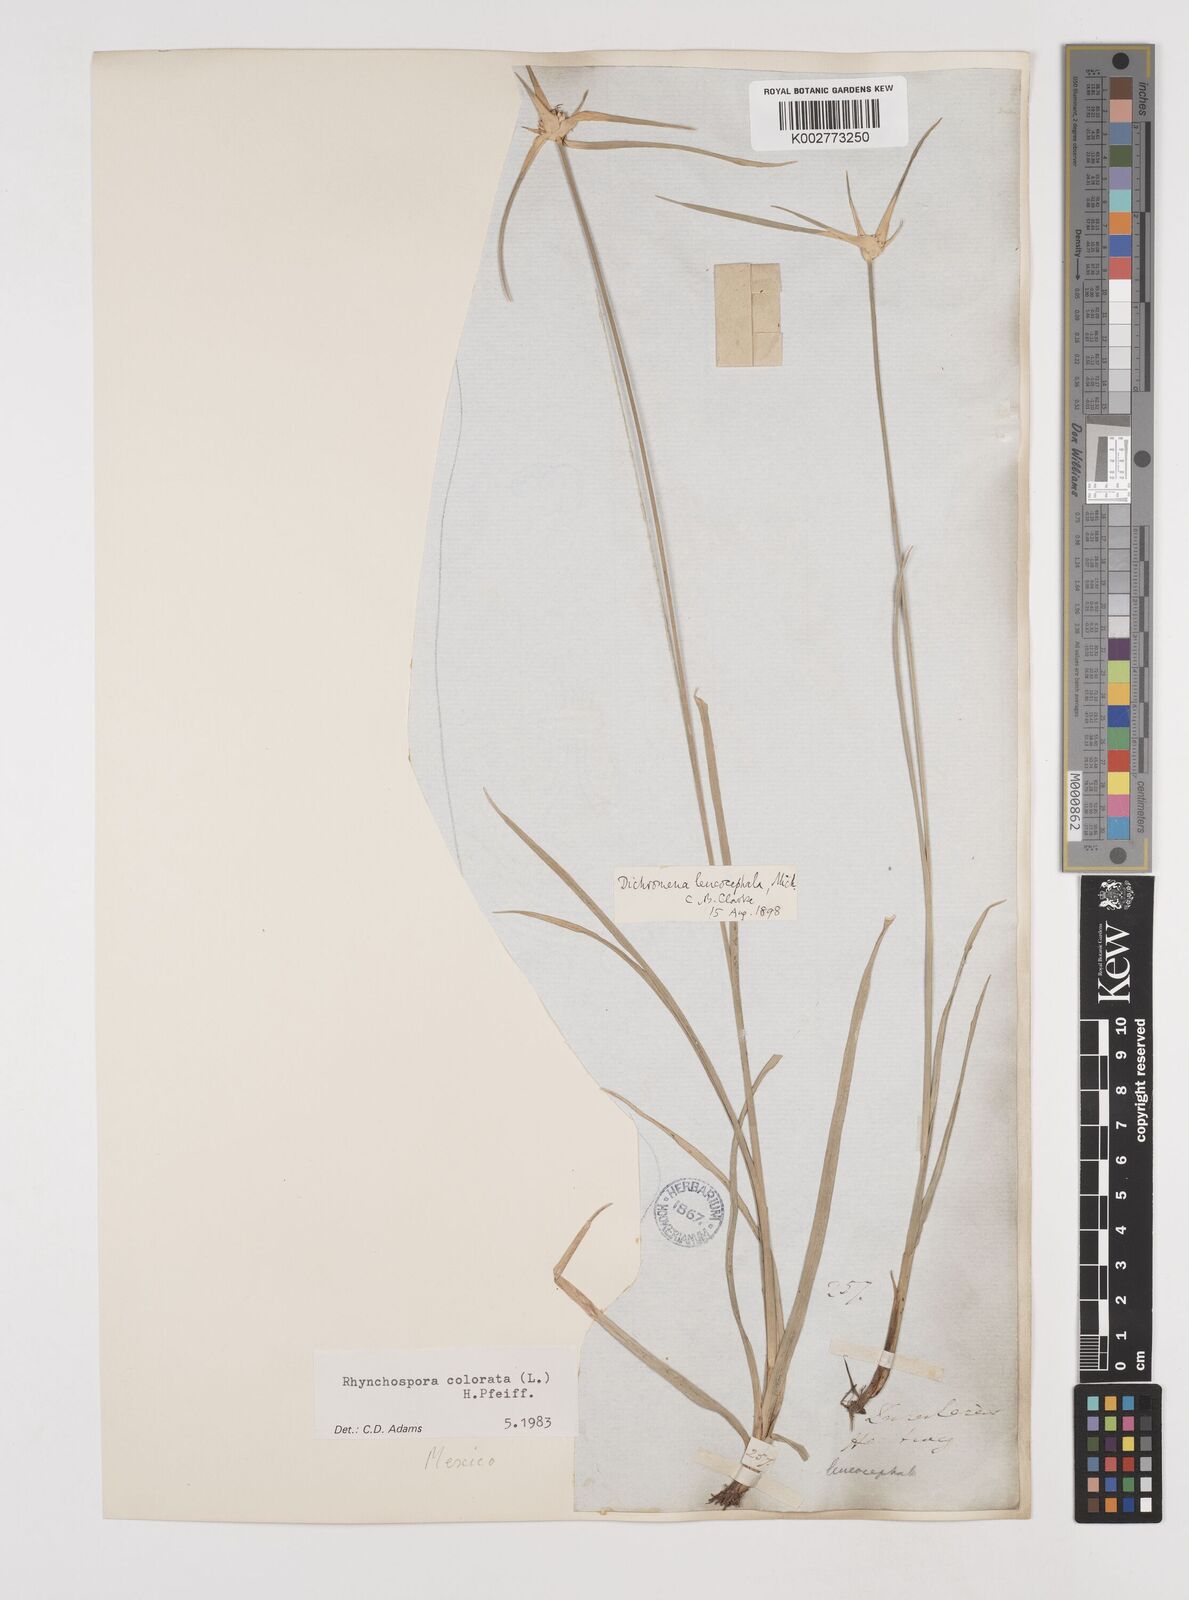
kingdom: Plantae
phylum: Tracheophyta
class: Liliopsida
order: Poales
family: Cyperaceae
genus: Rhynchospora
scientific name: Rhynchospora colorata
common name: Star sedge
